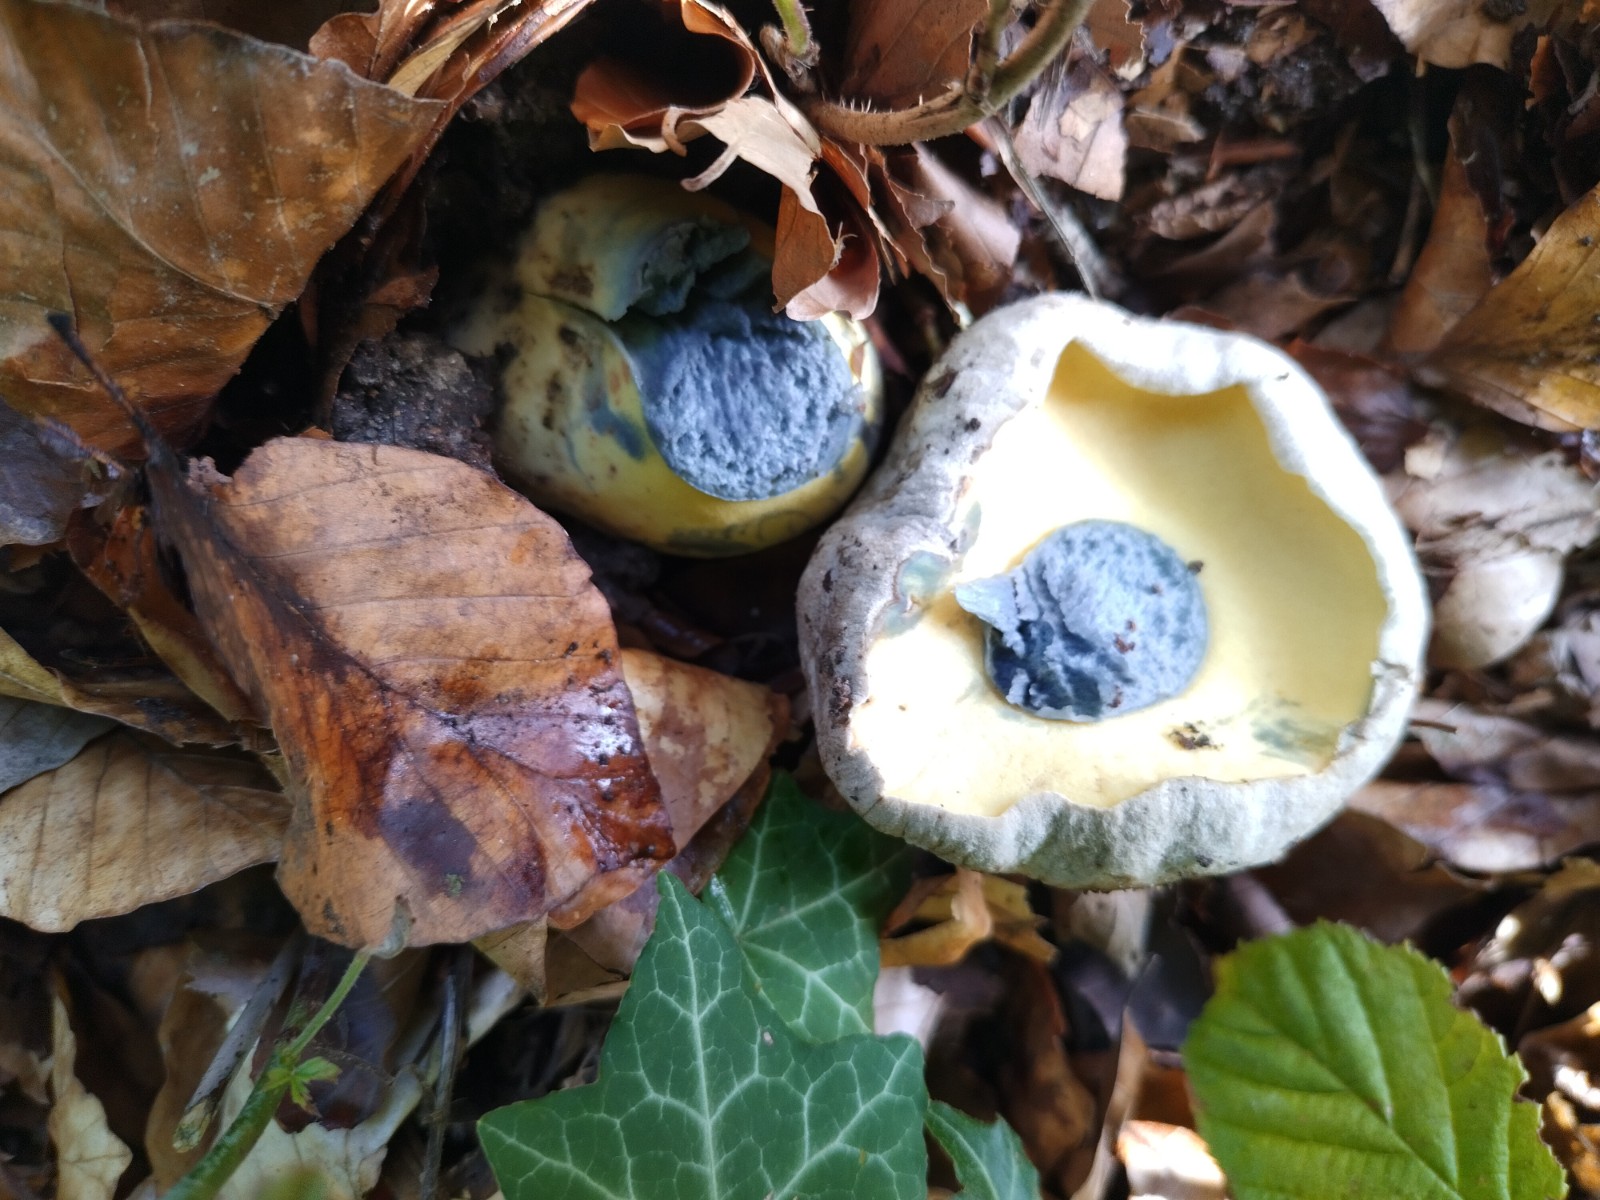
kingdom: Fungi
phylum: Basidiomycota
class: Agaricomycetes
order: Boletales
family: Boletaceae
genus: Caloboletus
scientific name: Caloboletus radicans
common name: rod-rørhat
